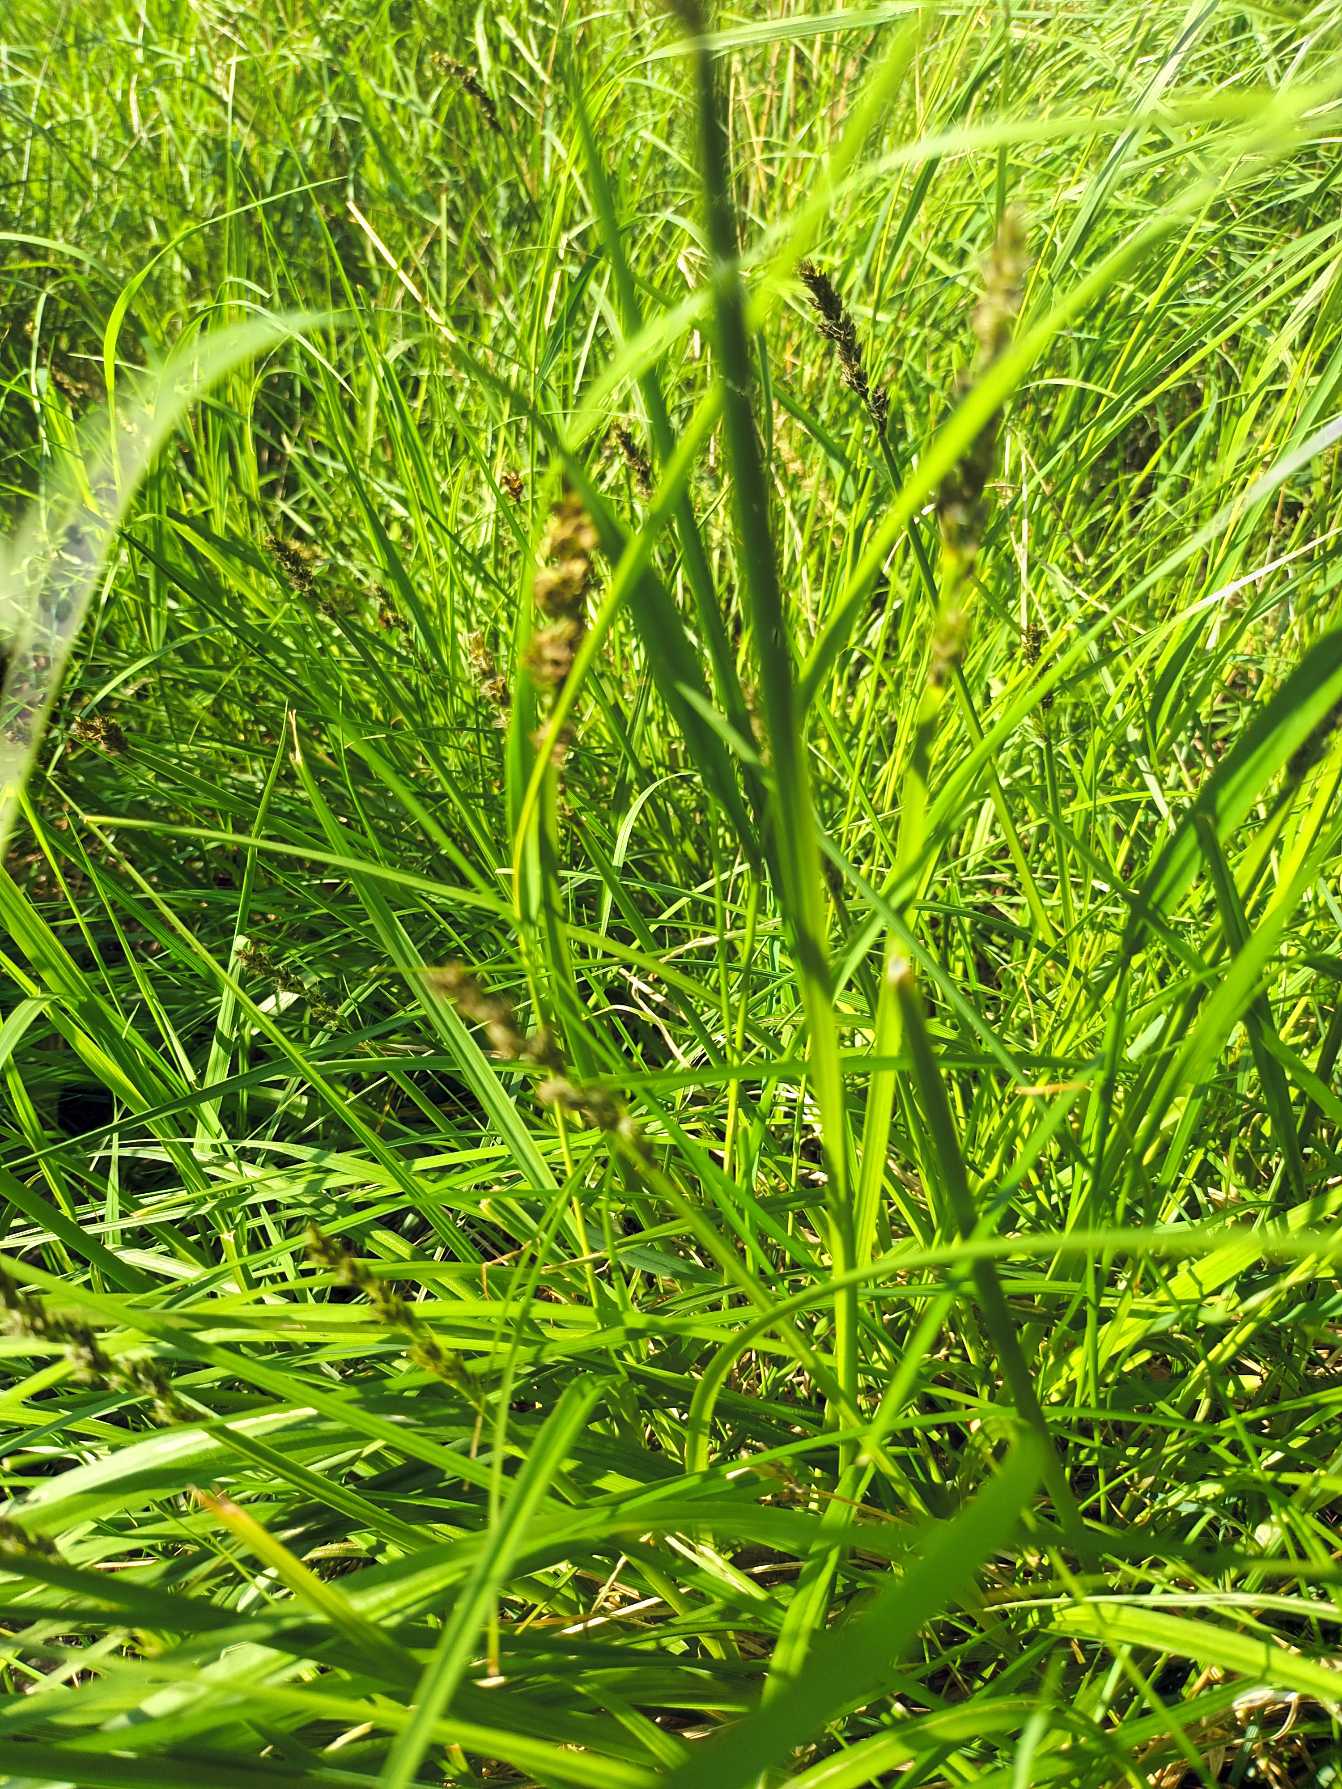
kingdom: Plantae
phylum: Tracheophyta
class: Liliopsida
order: Poales
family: Cyperaceae
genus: Carex
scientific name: Carex vulpina
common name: Ræve-star
